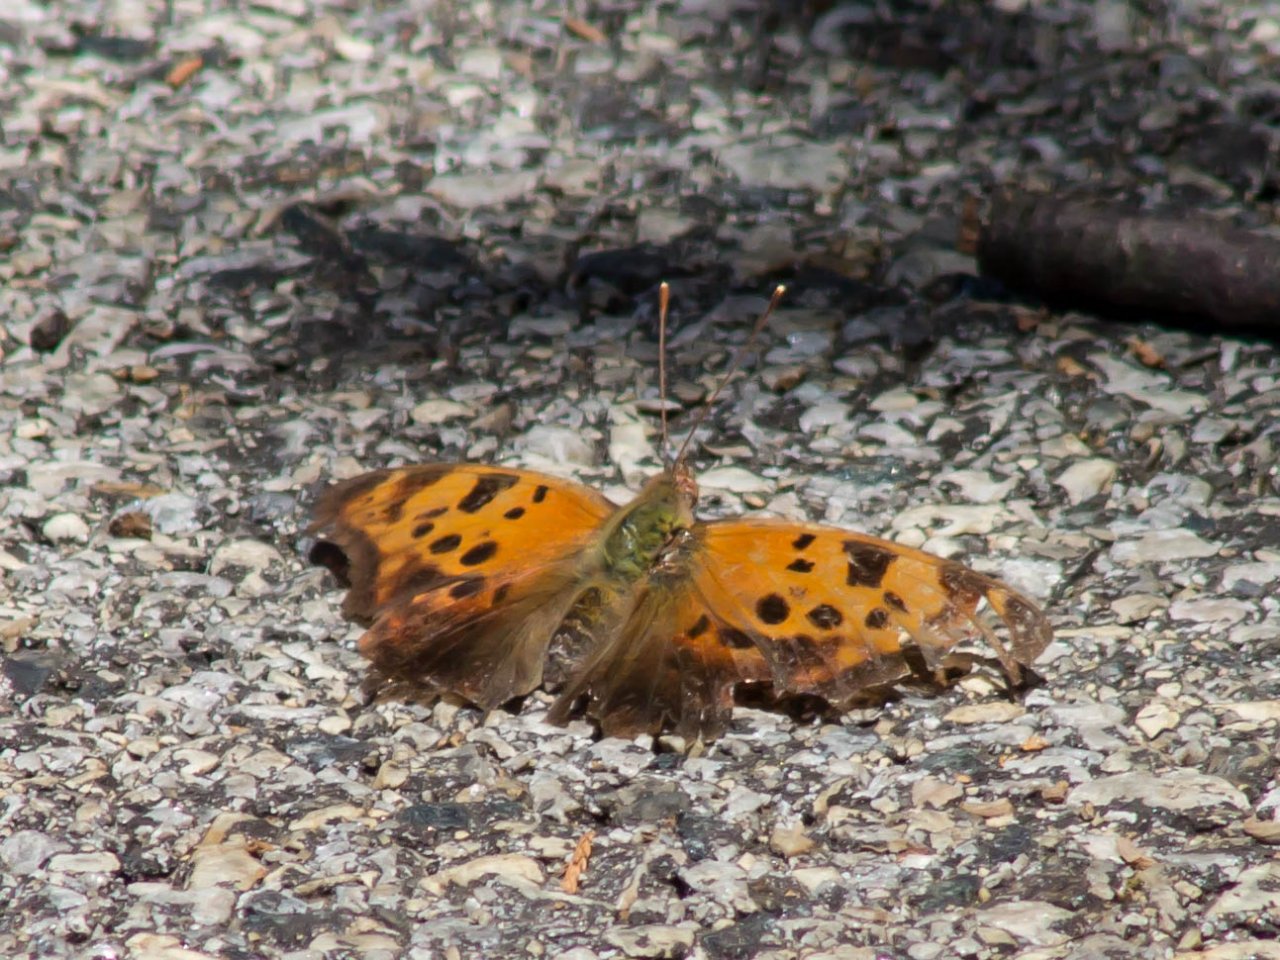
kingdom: Animalia
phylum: Arthropoda
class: Insecta
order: Lepidoptera
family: Nymphalidae
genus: Polygonia
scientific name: Polygonia interrogationis
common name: Question Mark
